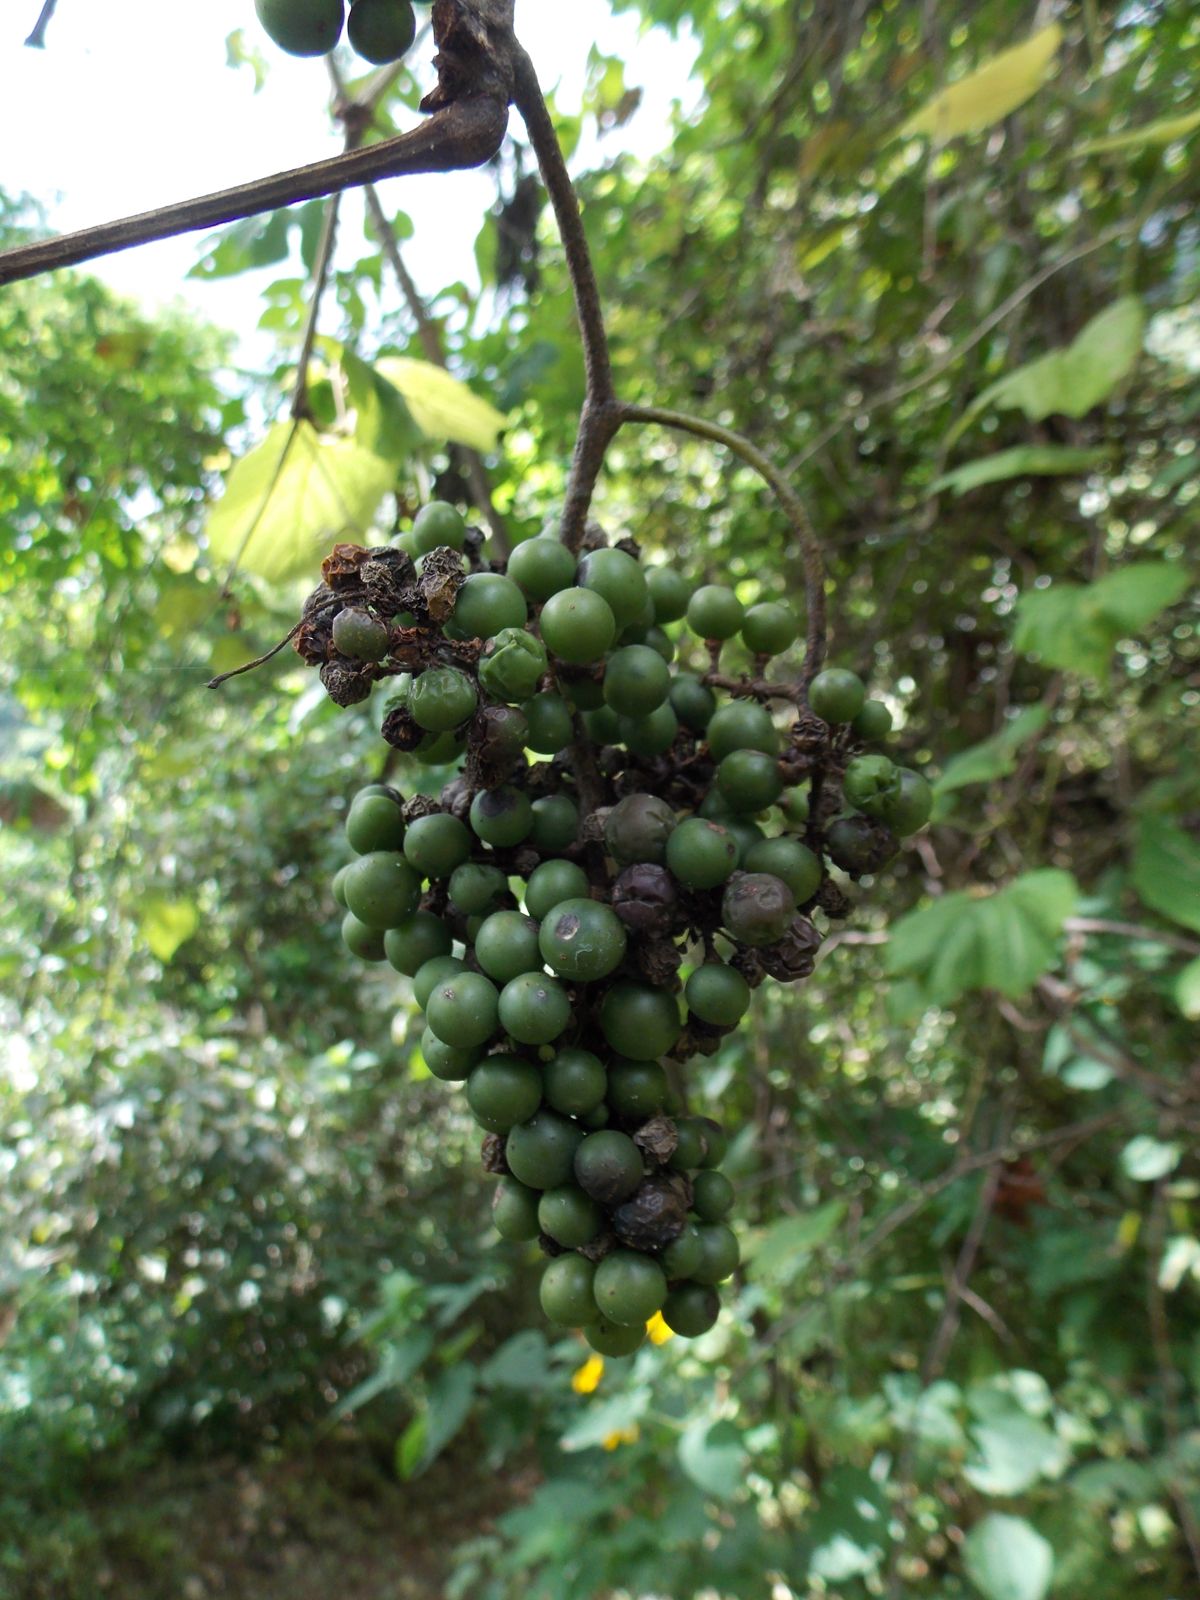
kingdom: Plantae
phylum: Tracheophyta
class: Magnoliopsida
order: Vitales
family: Vitaceae
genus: Vitis
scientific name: Vitis tiliifolia
